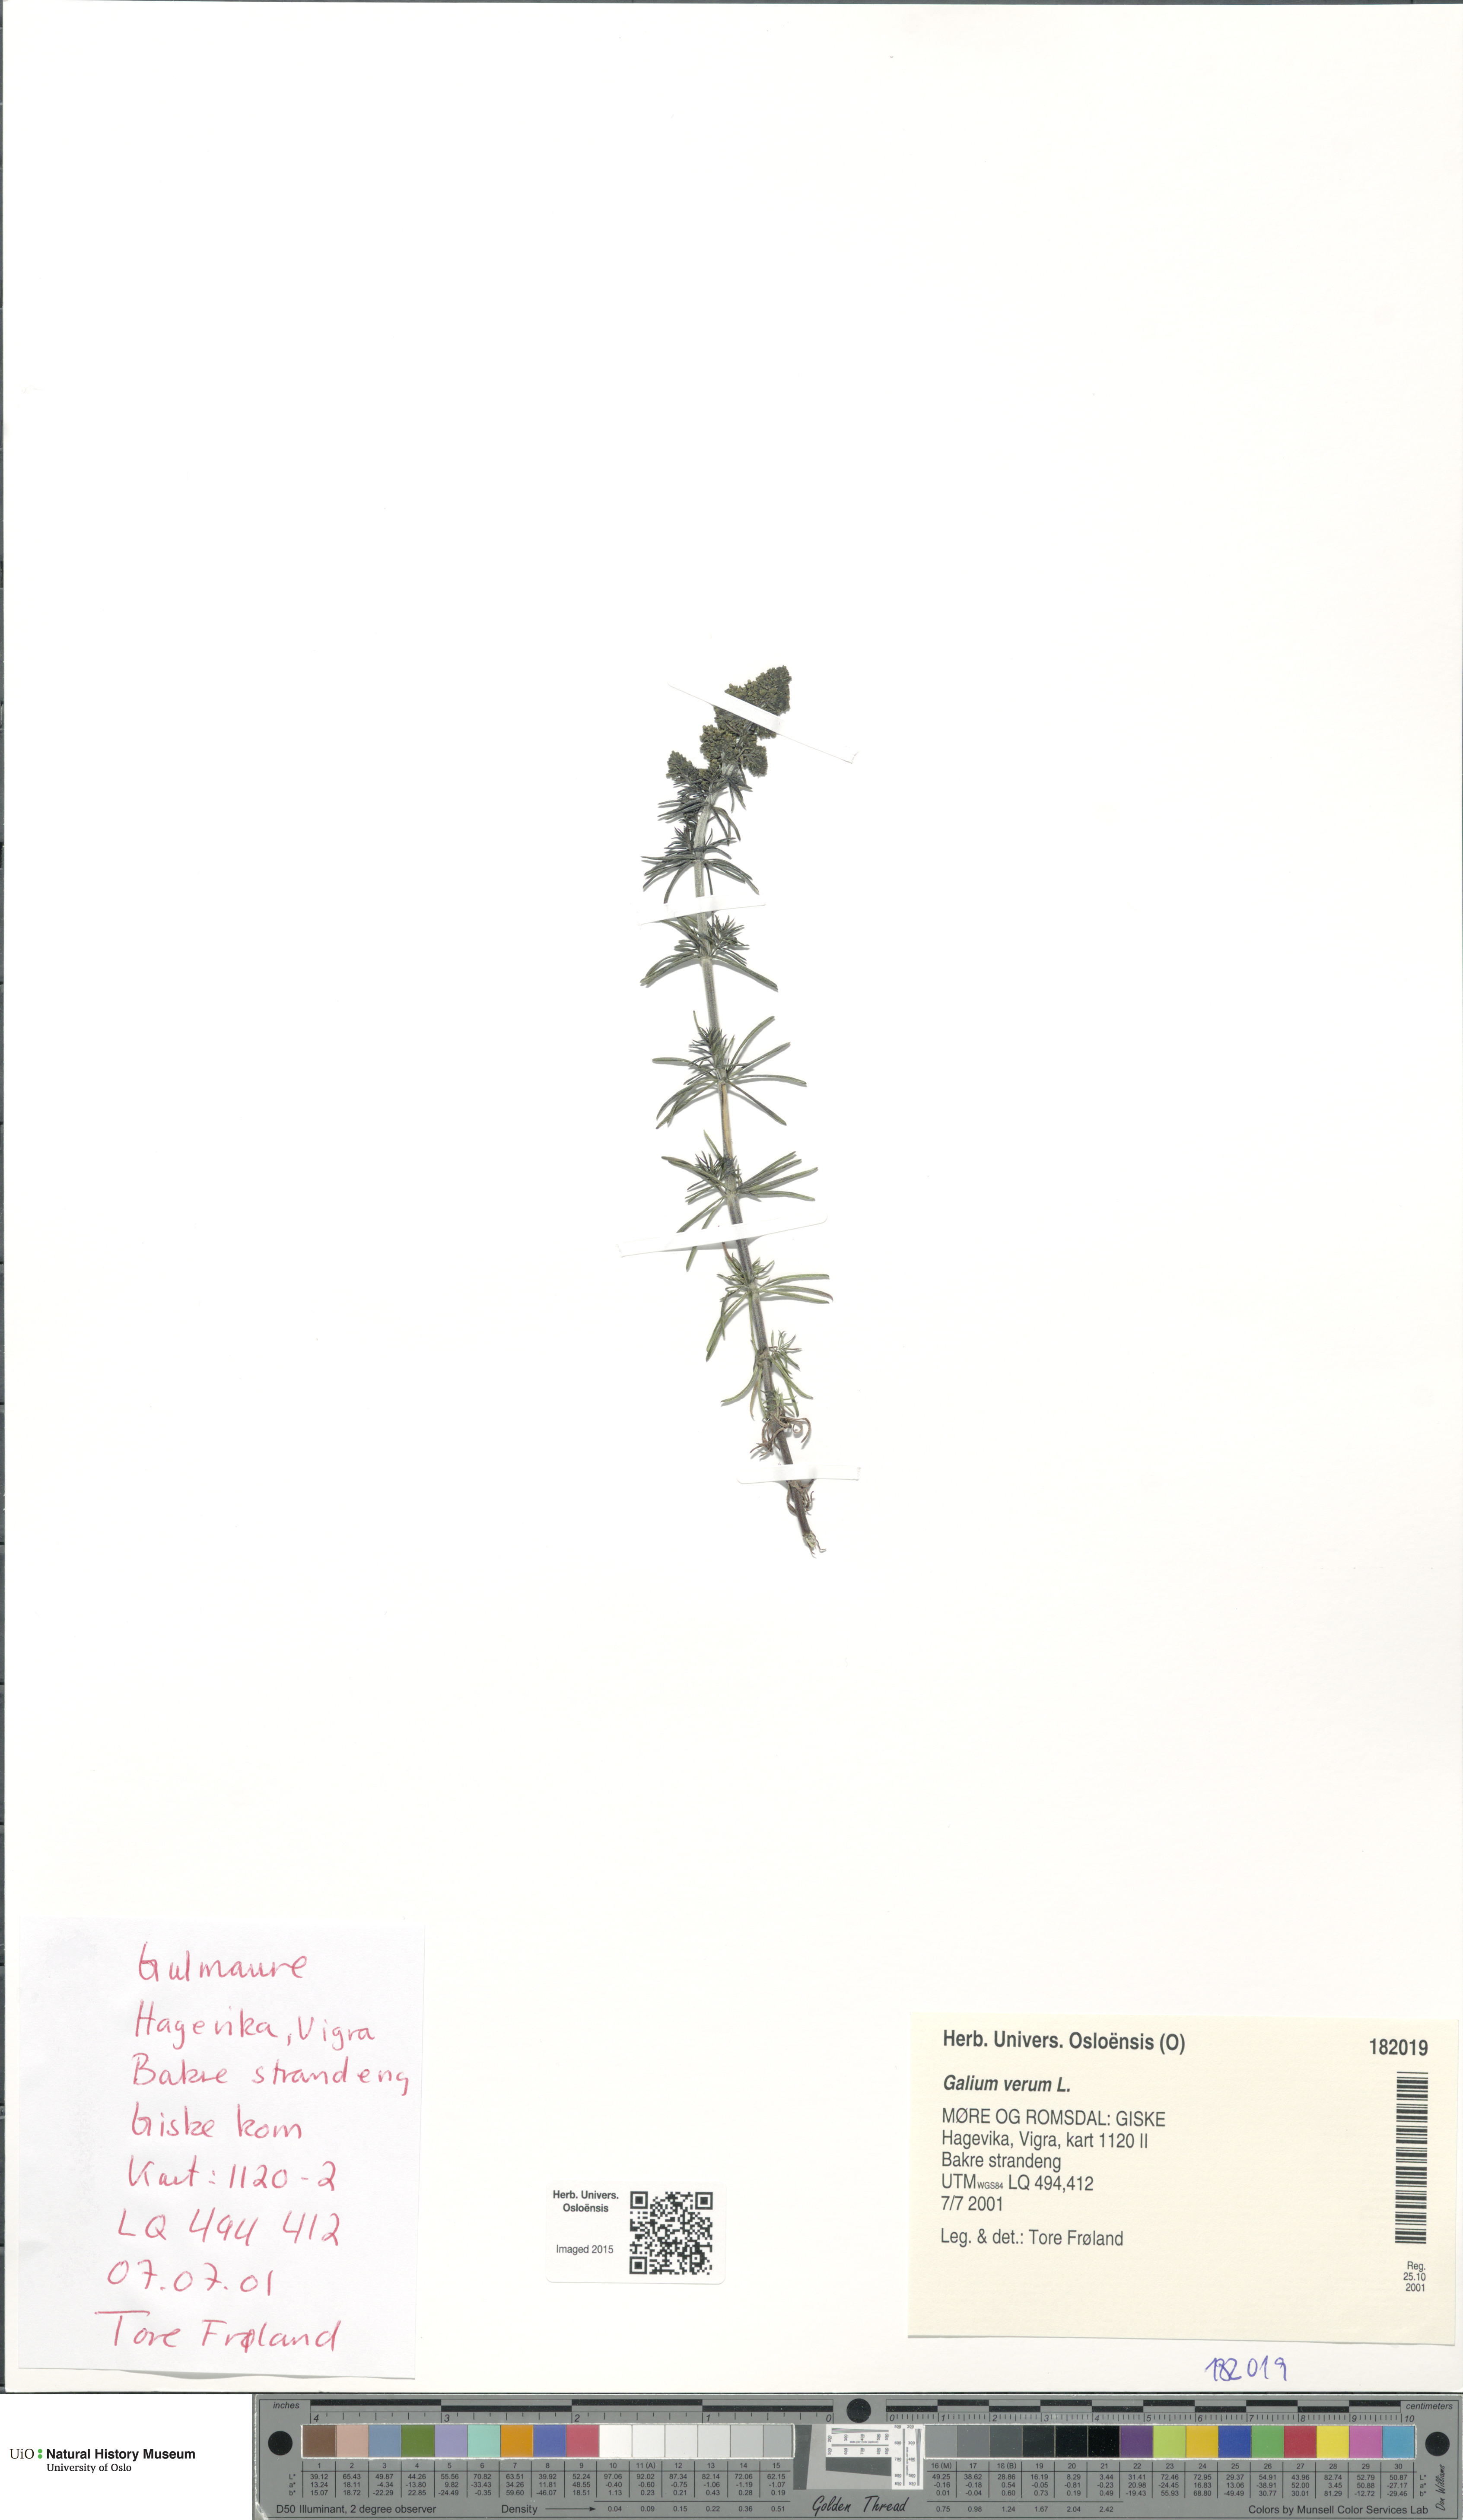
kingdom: Plantae
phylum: Tracheophyta
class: Magnoliopsida
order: Gentianales
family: Rubiaceae
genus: Galium
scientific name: Galium verum
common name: Lady's bedstraw
